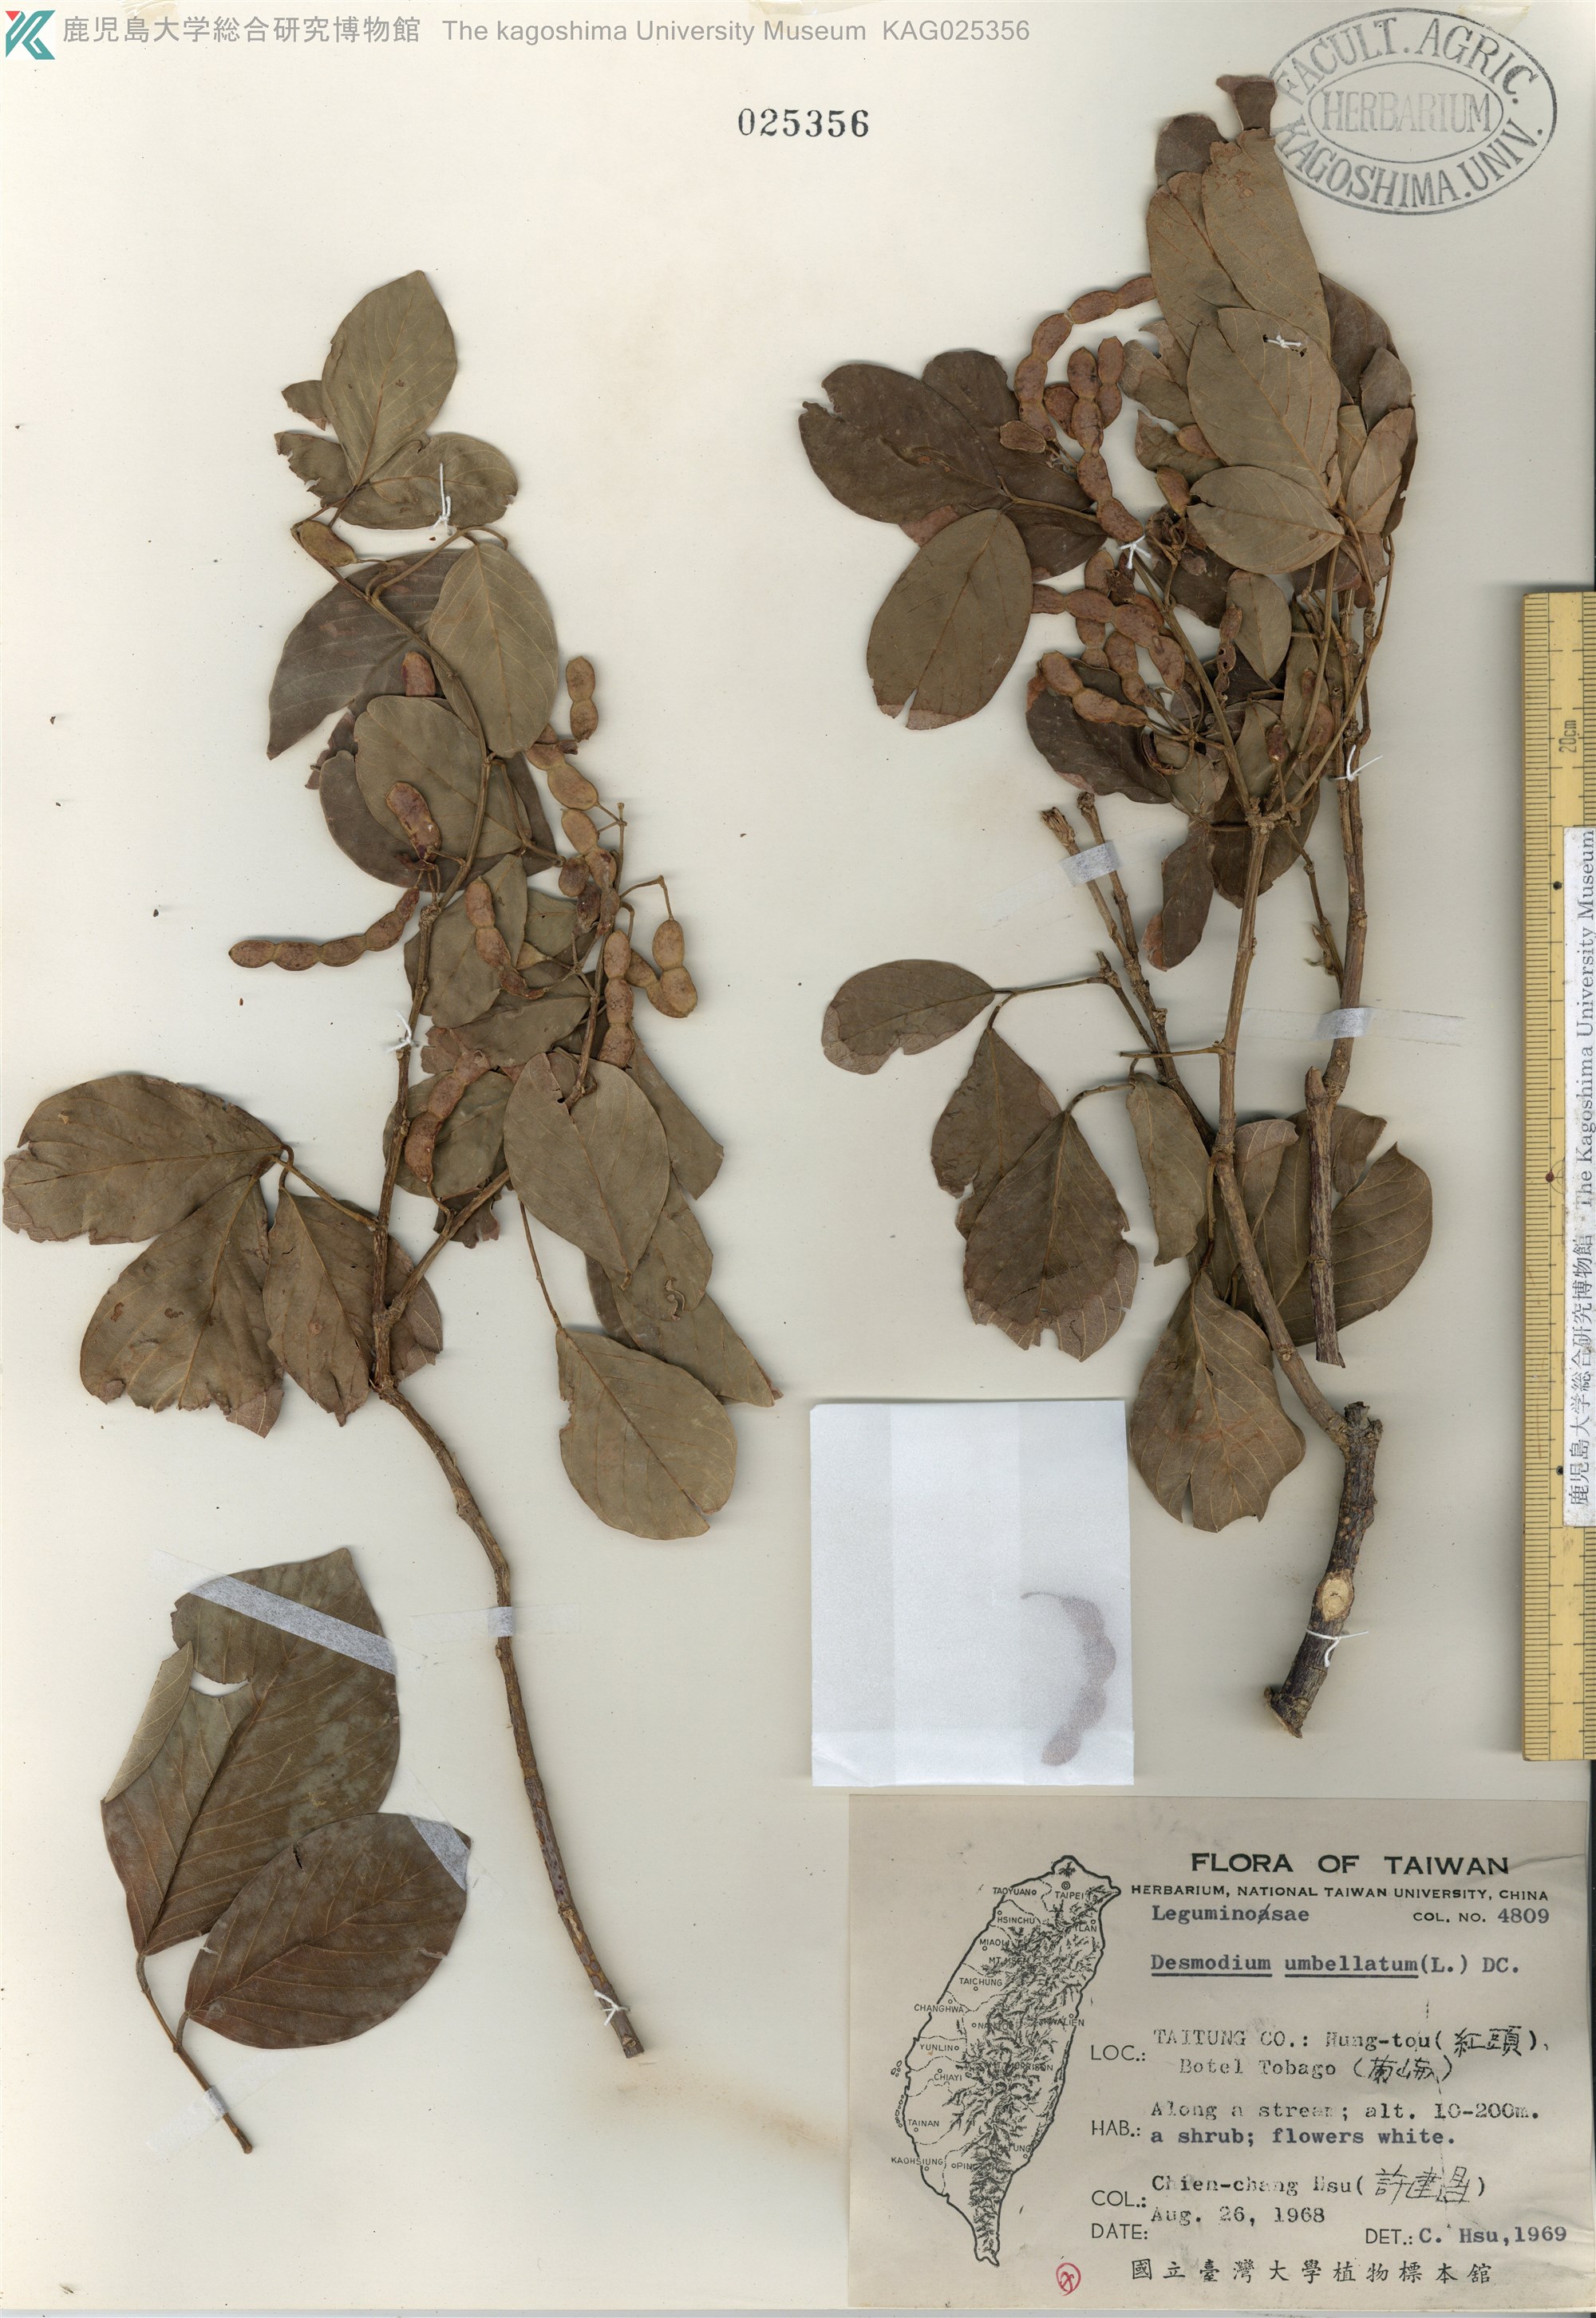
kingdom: Plantae
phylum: Tracheophyta
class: Magnoliopsida
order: Fabales
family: Fabaceae
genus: Desmodium
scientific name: Desmodium umbellatum
